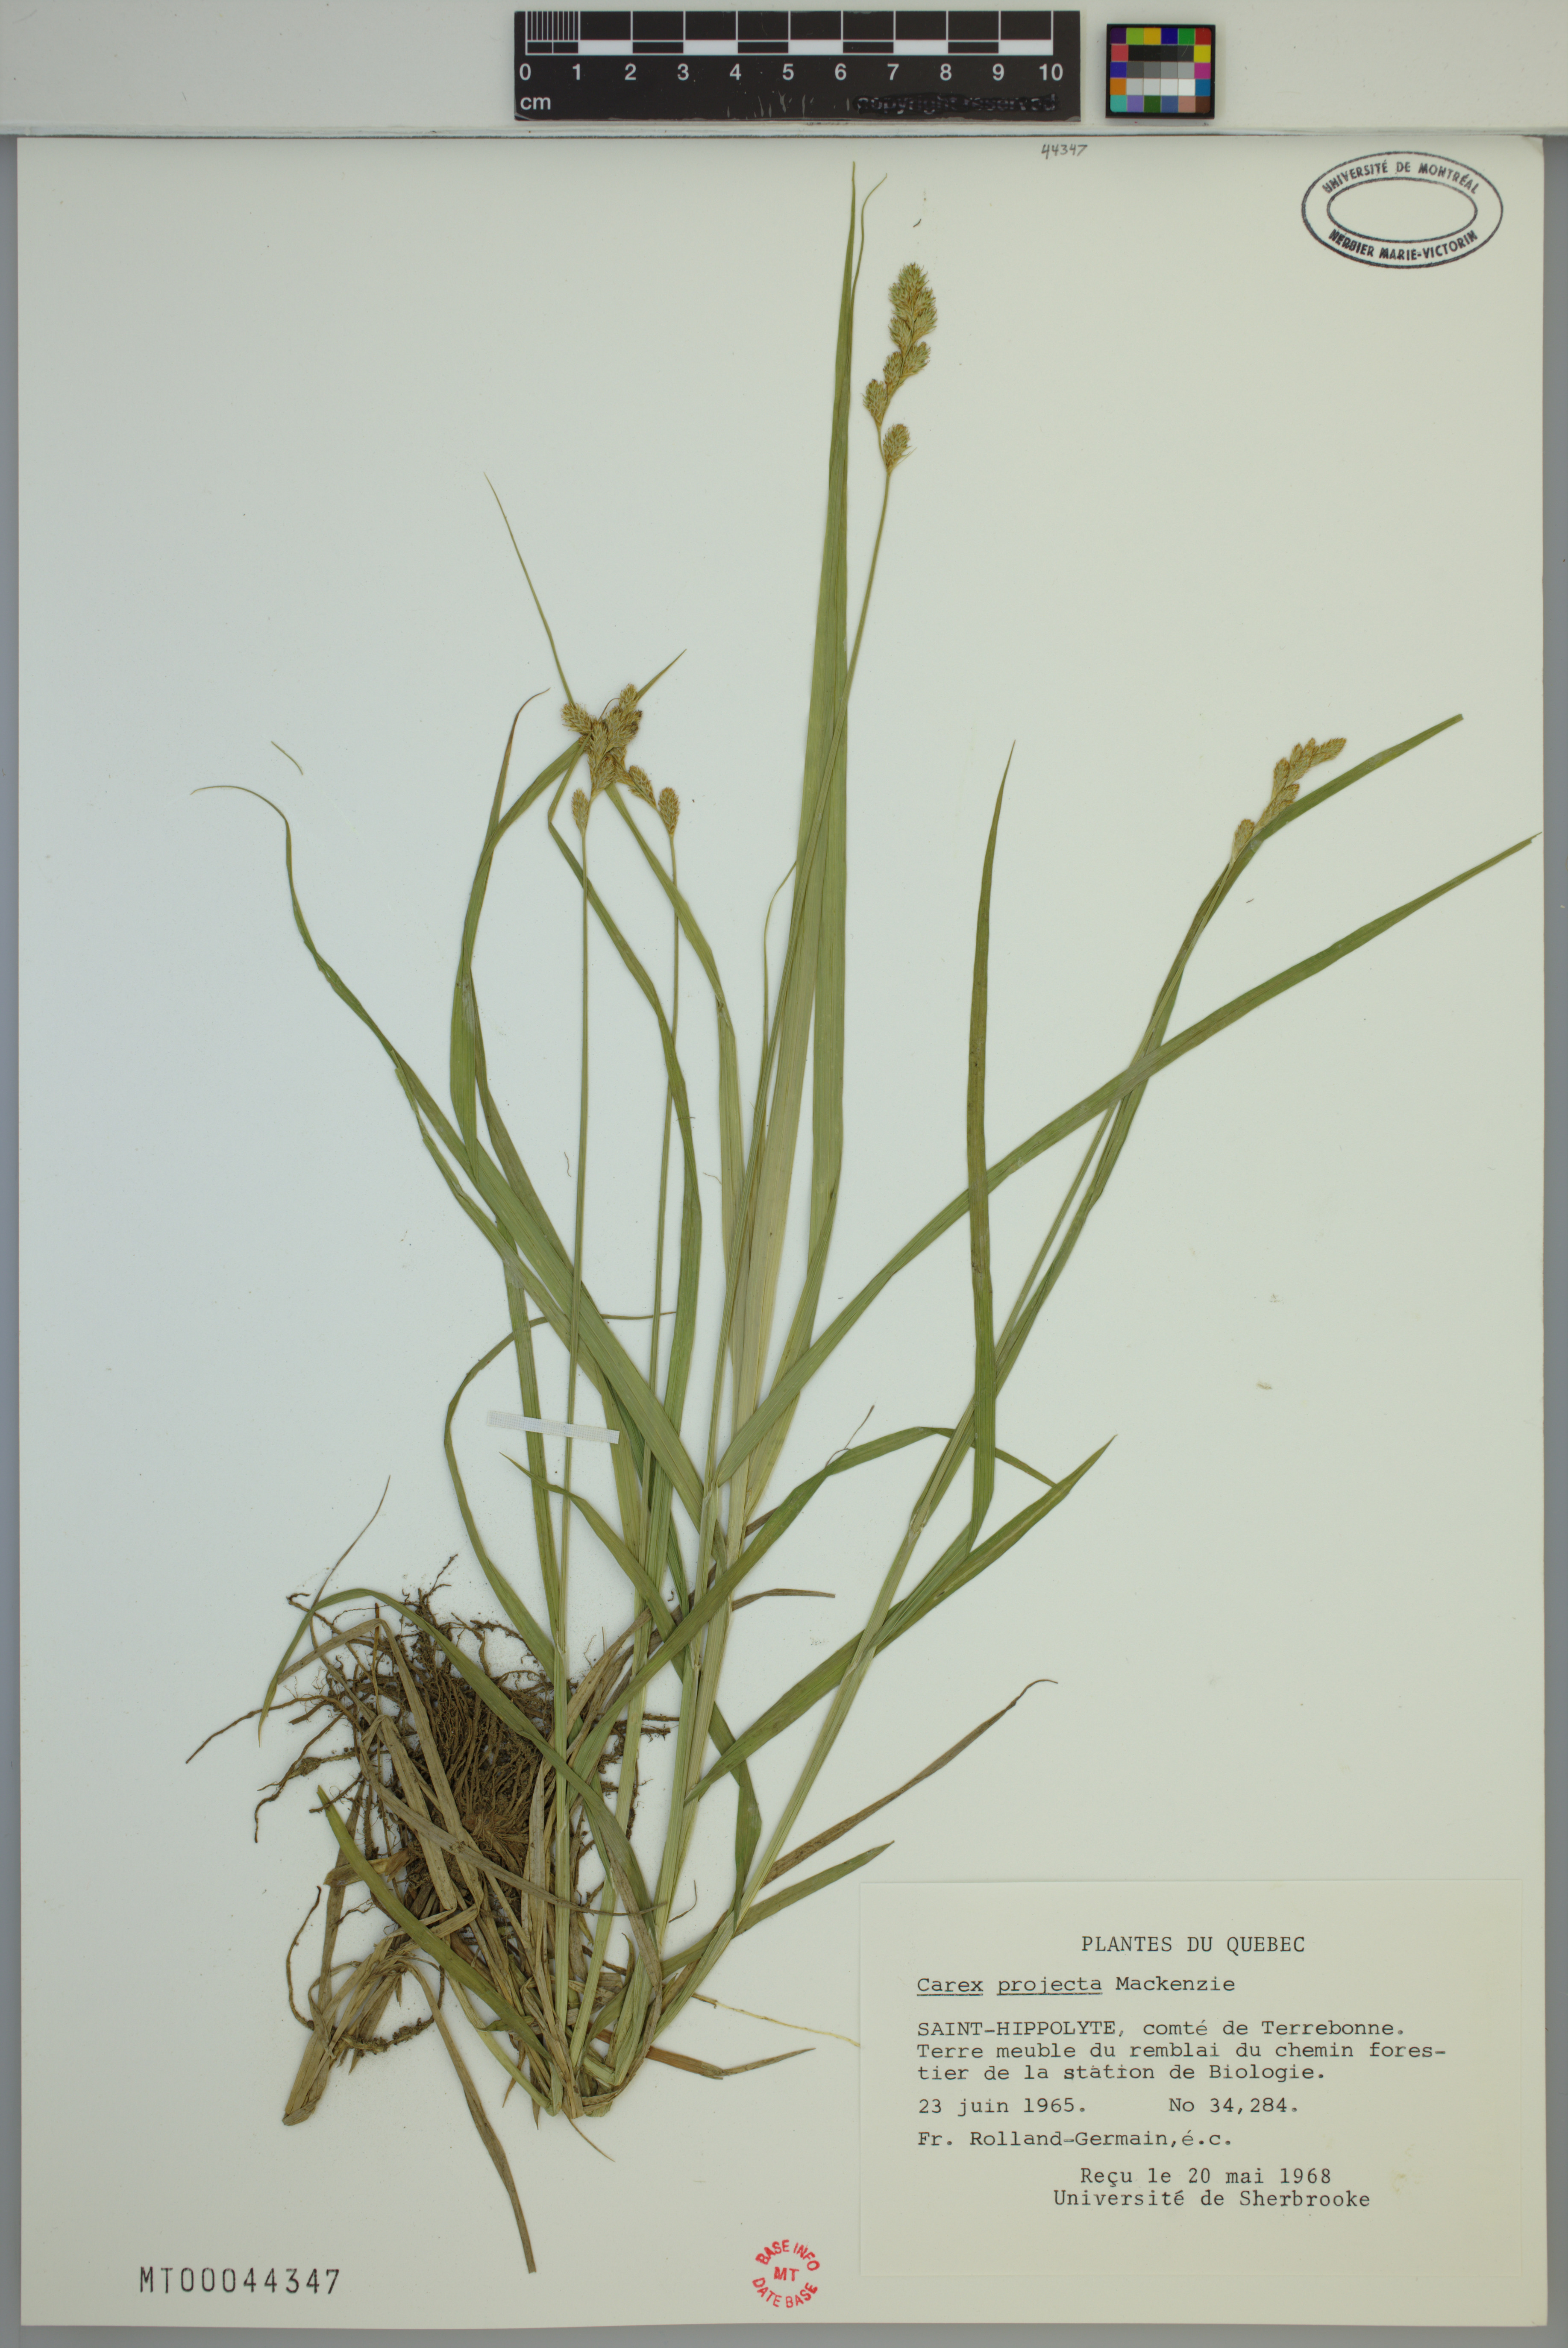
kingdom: Plantae
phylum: Tracheophyta
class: Liliopsida
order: Poales
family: Cyperaceae
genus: Carex
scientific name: Carex projecta
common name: Loose-headed oval sedge
